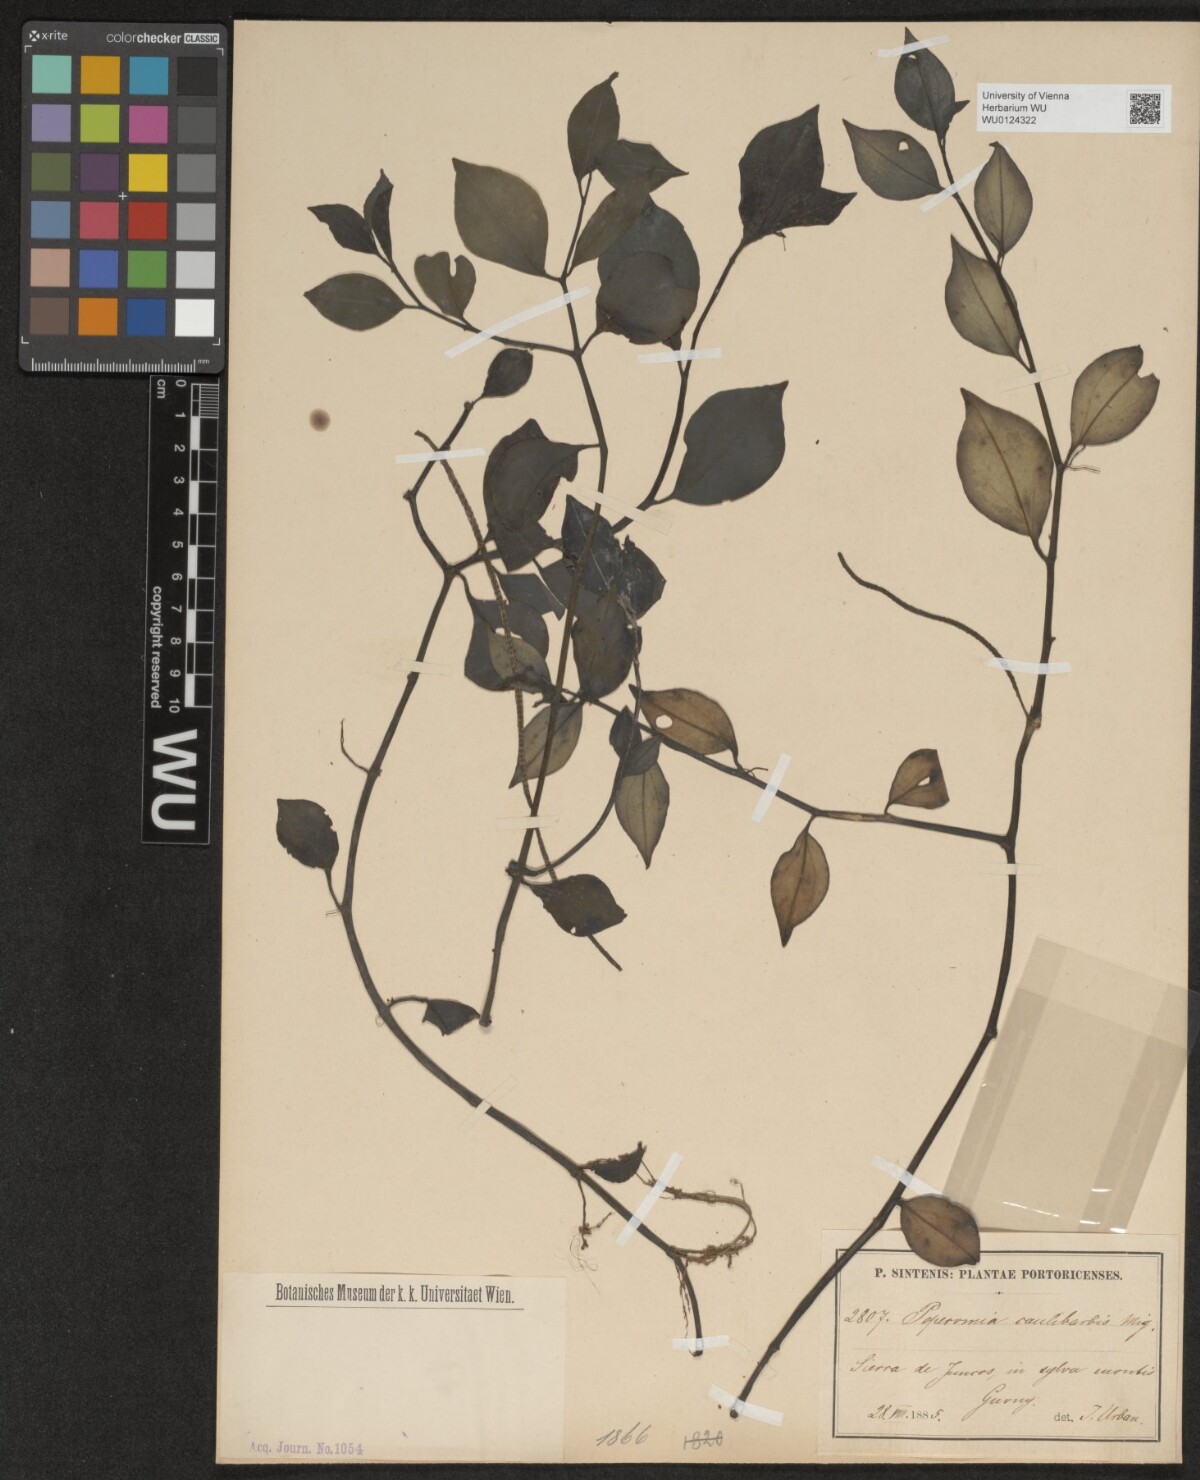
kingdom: Plantae
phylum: Tracheophyta
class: Magnoliopsida
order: Piperales
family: Piperaceae
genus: Peperomia
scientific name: Peperomia glabella
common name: Cypress peperomia
